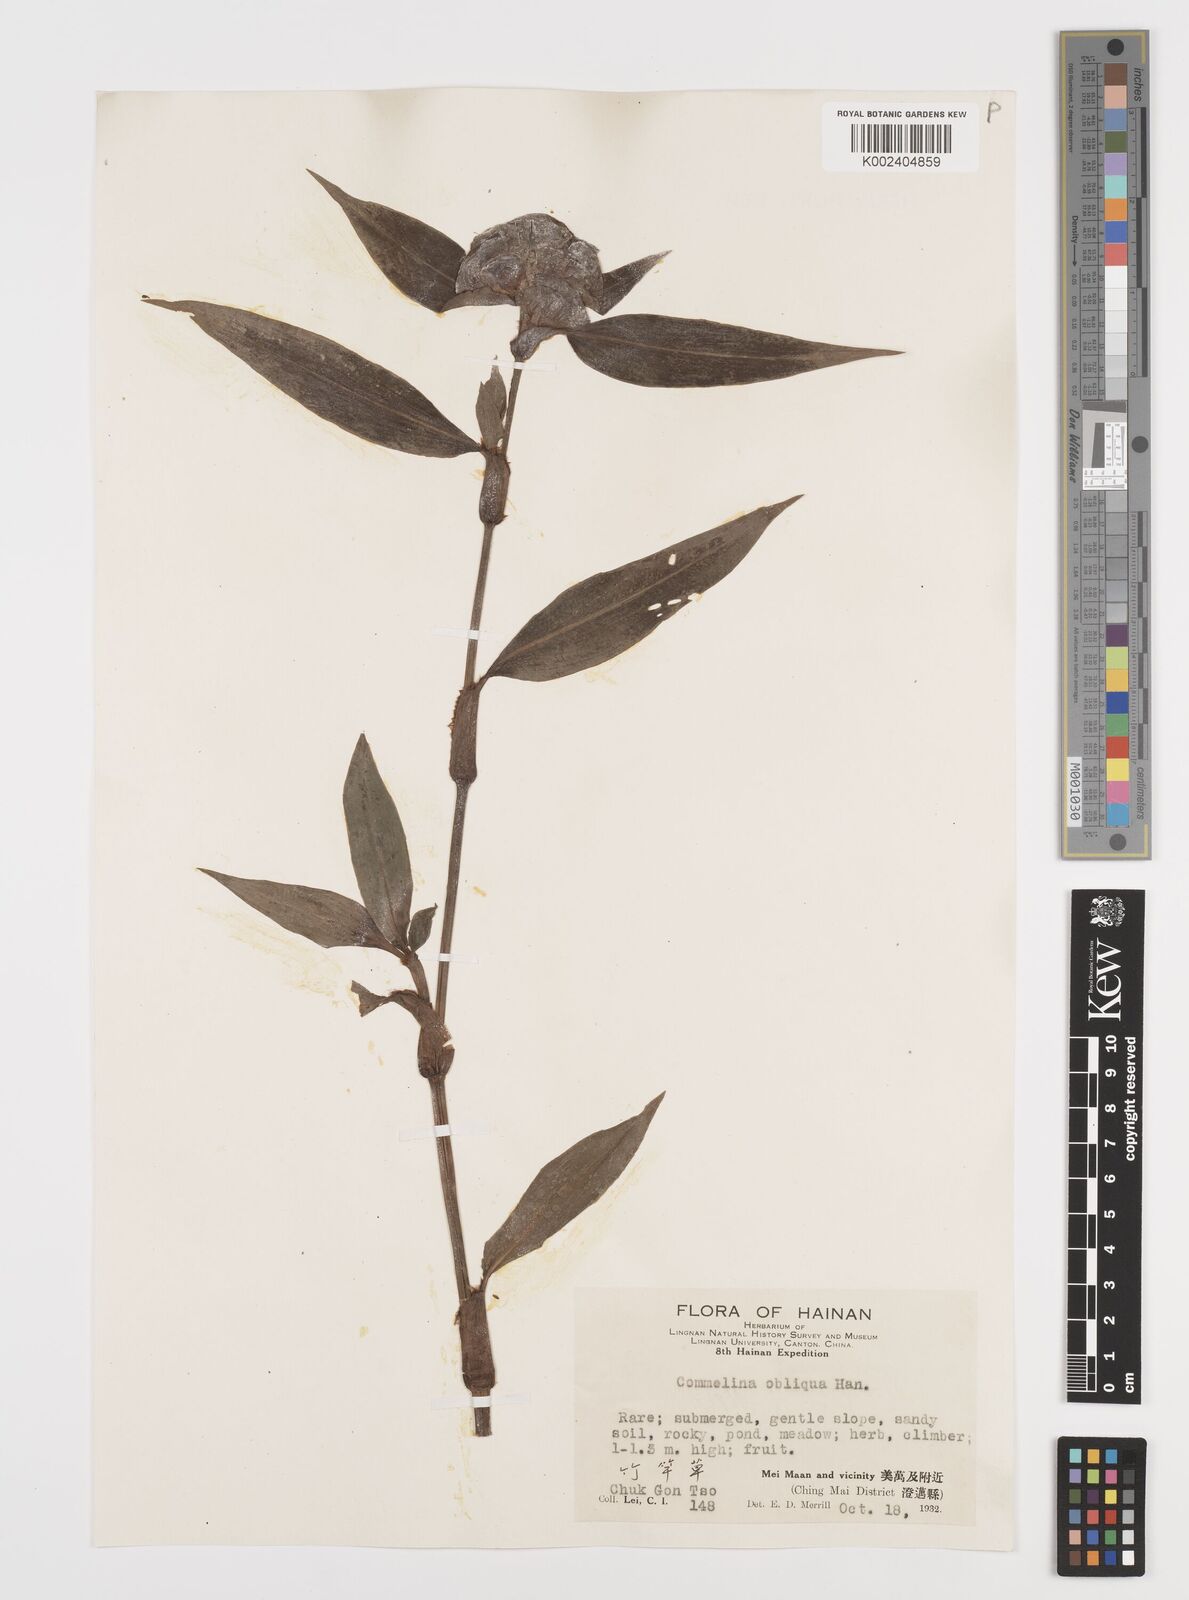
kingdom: Plantae
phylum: Tracheophyta
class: Liliopsida
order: Commelinales
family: Commelinaceae
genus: Commelina
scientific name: Commelina obliqua
